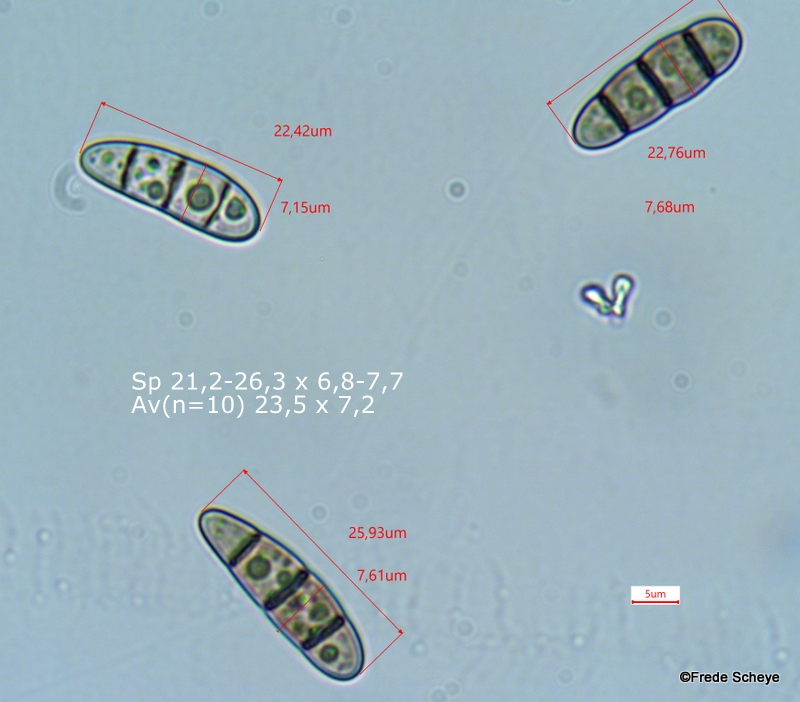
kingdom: Fungi
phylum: Ascomycota
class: Dothideomycetes
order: Hysteriales
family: Hysteriaceae
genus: Hysterium
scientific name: Hysterium acuminatum
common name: almindelig kulmund
